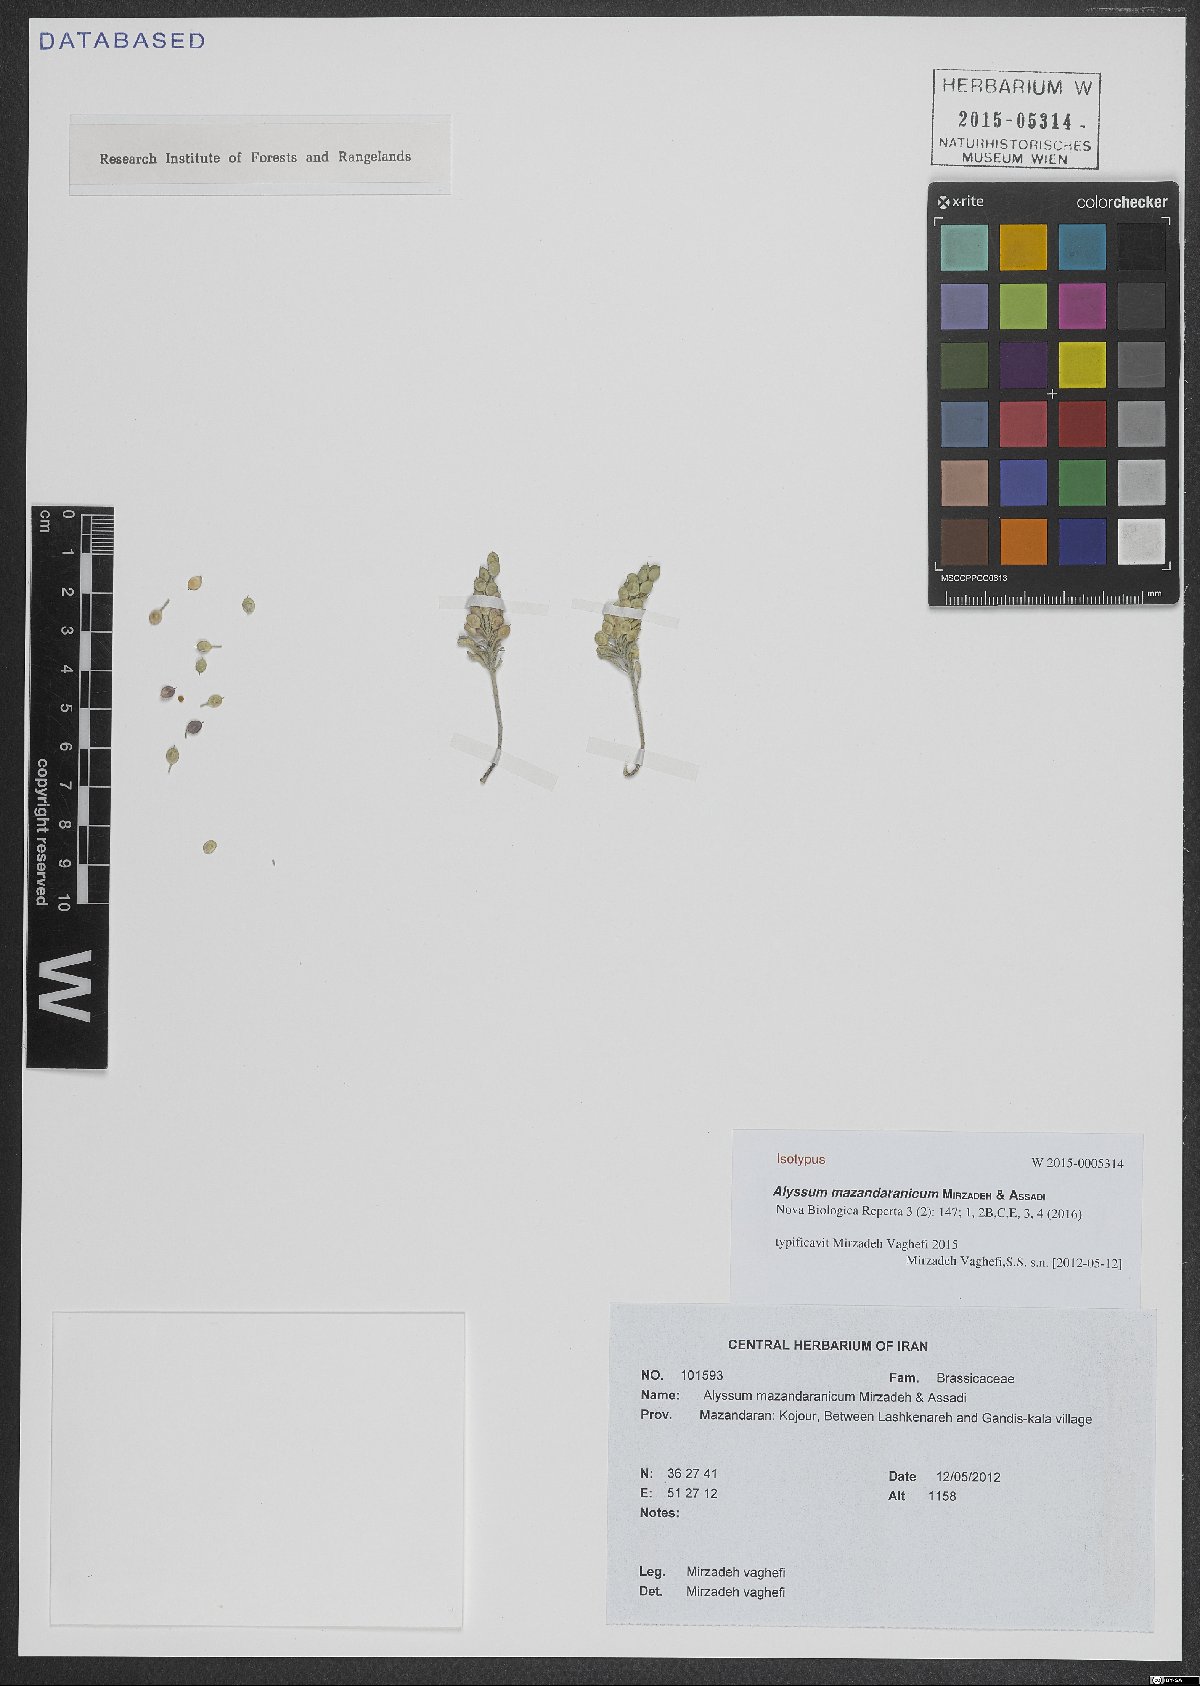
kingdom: Plantae
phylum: Tracheophyta
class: Magnoliopsida
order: Brassicales
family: Brassicaceae
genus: Alyssum
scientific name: Alyssum mazandaranicum
